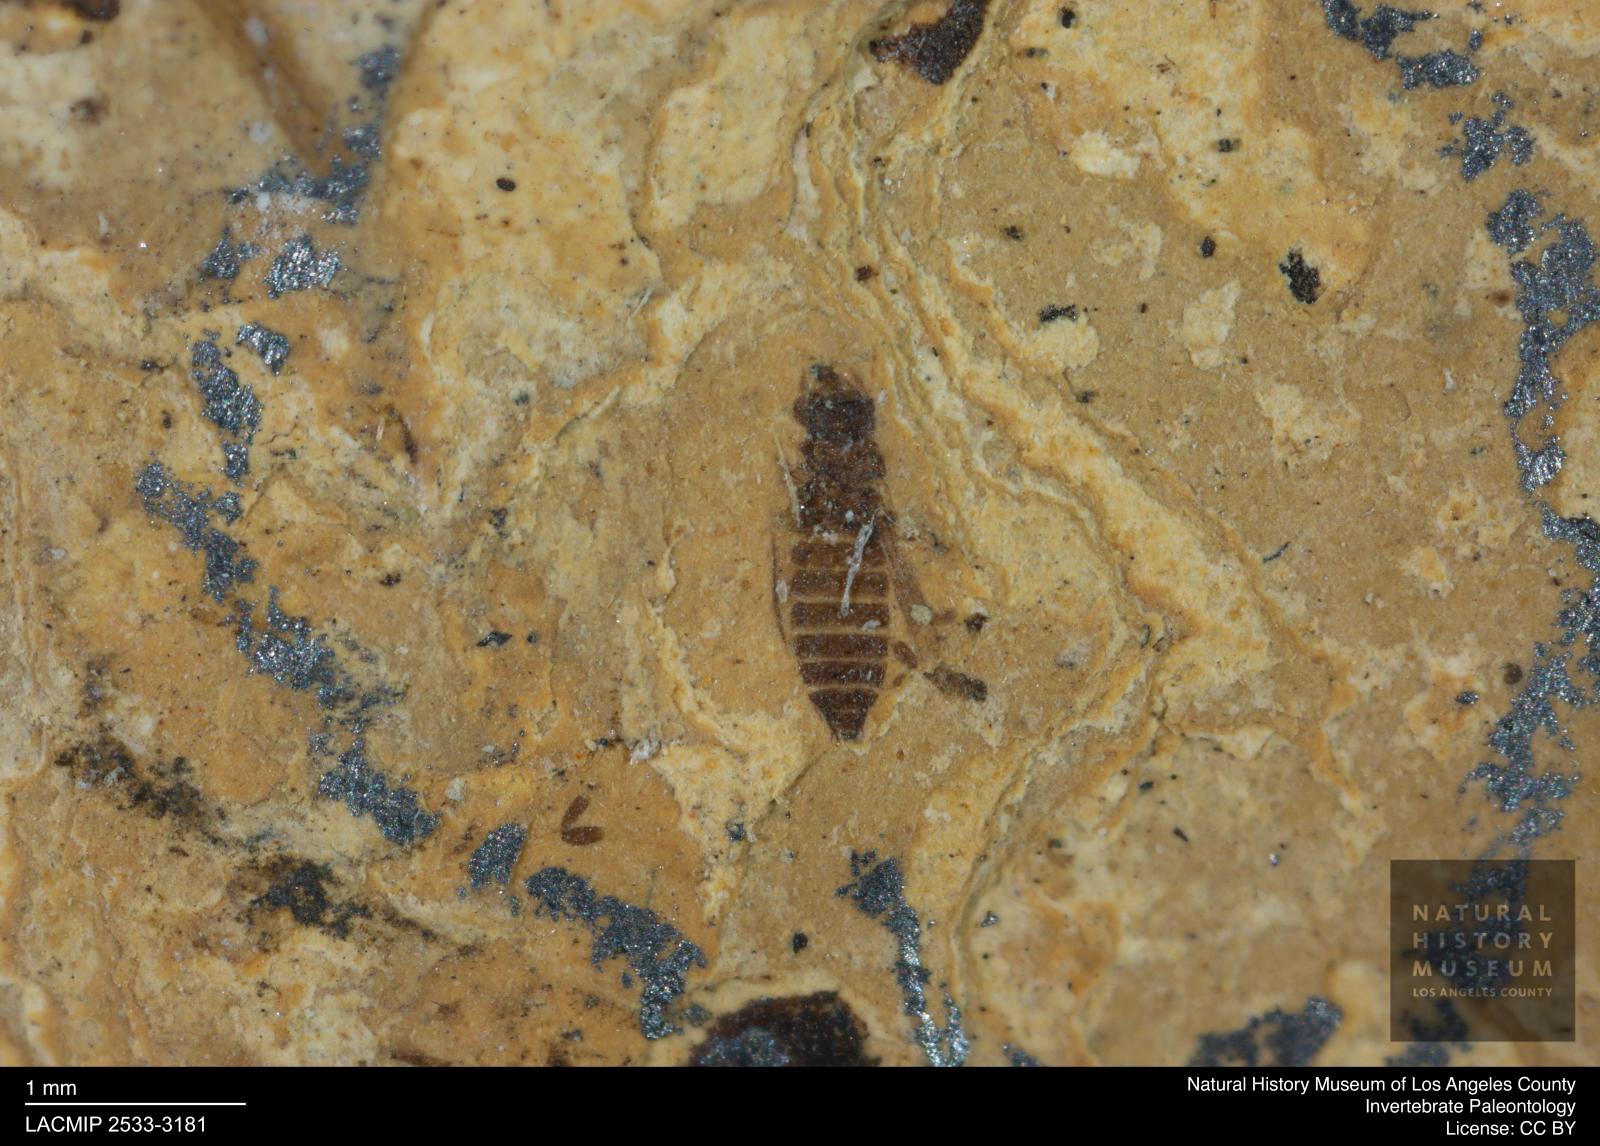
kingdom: Animalia
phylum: Arthropoda
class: Insecta
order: Thysanoptera
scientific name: Thysanoptera
